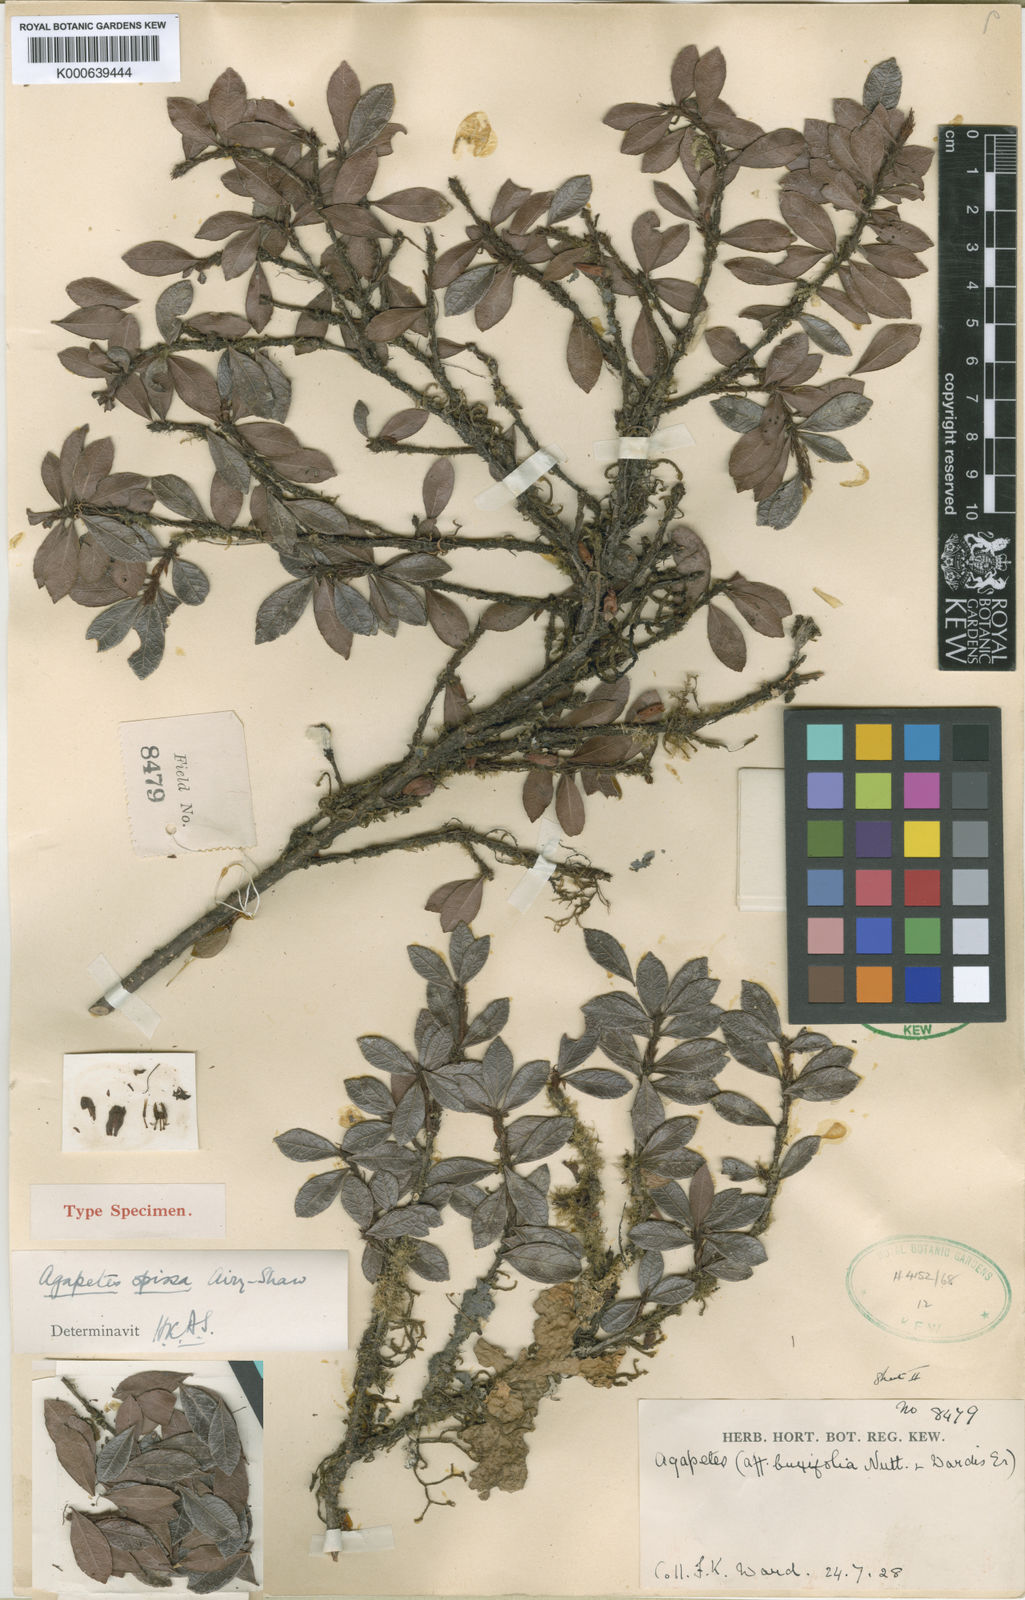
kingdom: Plantae
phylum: Tracheophyta
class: Magnoliopsida
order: Ericales
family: Ericaceae
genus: Agapetes
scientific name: Agapetes spissa
